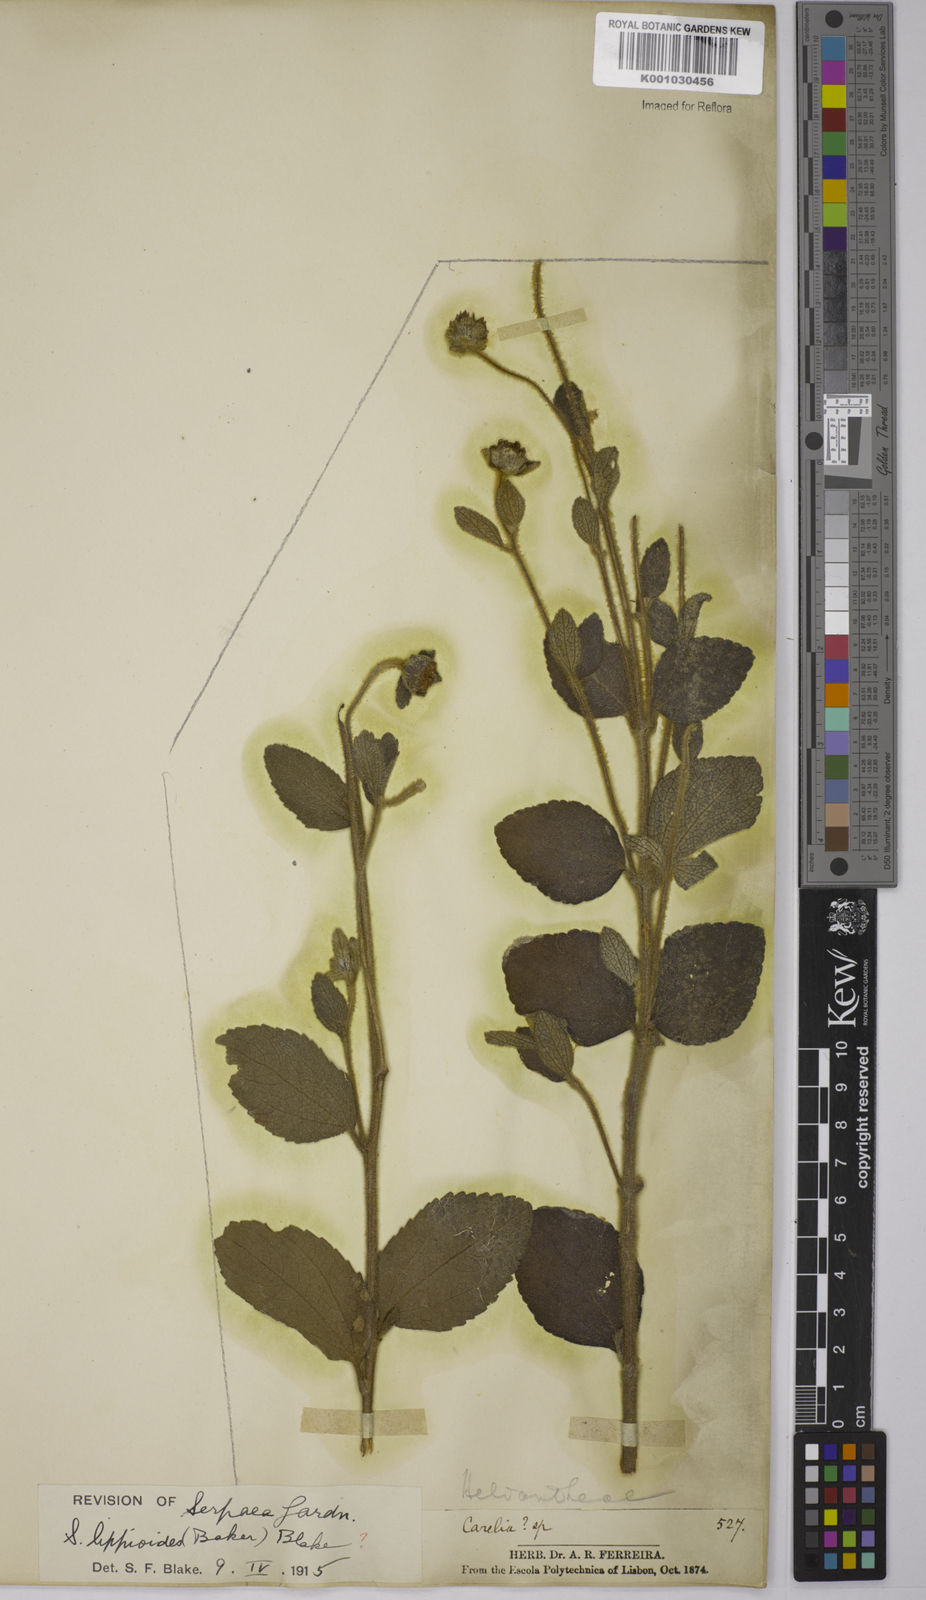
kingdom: Plantae
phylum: Tracheophyta
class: Magnoliopsida
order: Asterales
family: Asteraceae
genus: Dimerostemma
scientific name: Dimerostemma brasilianum
